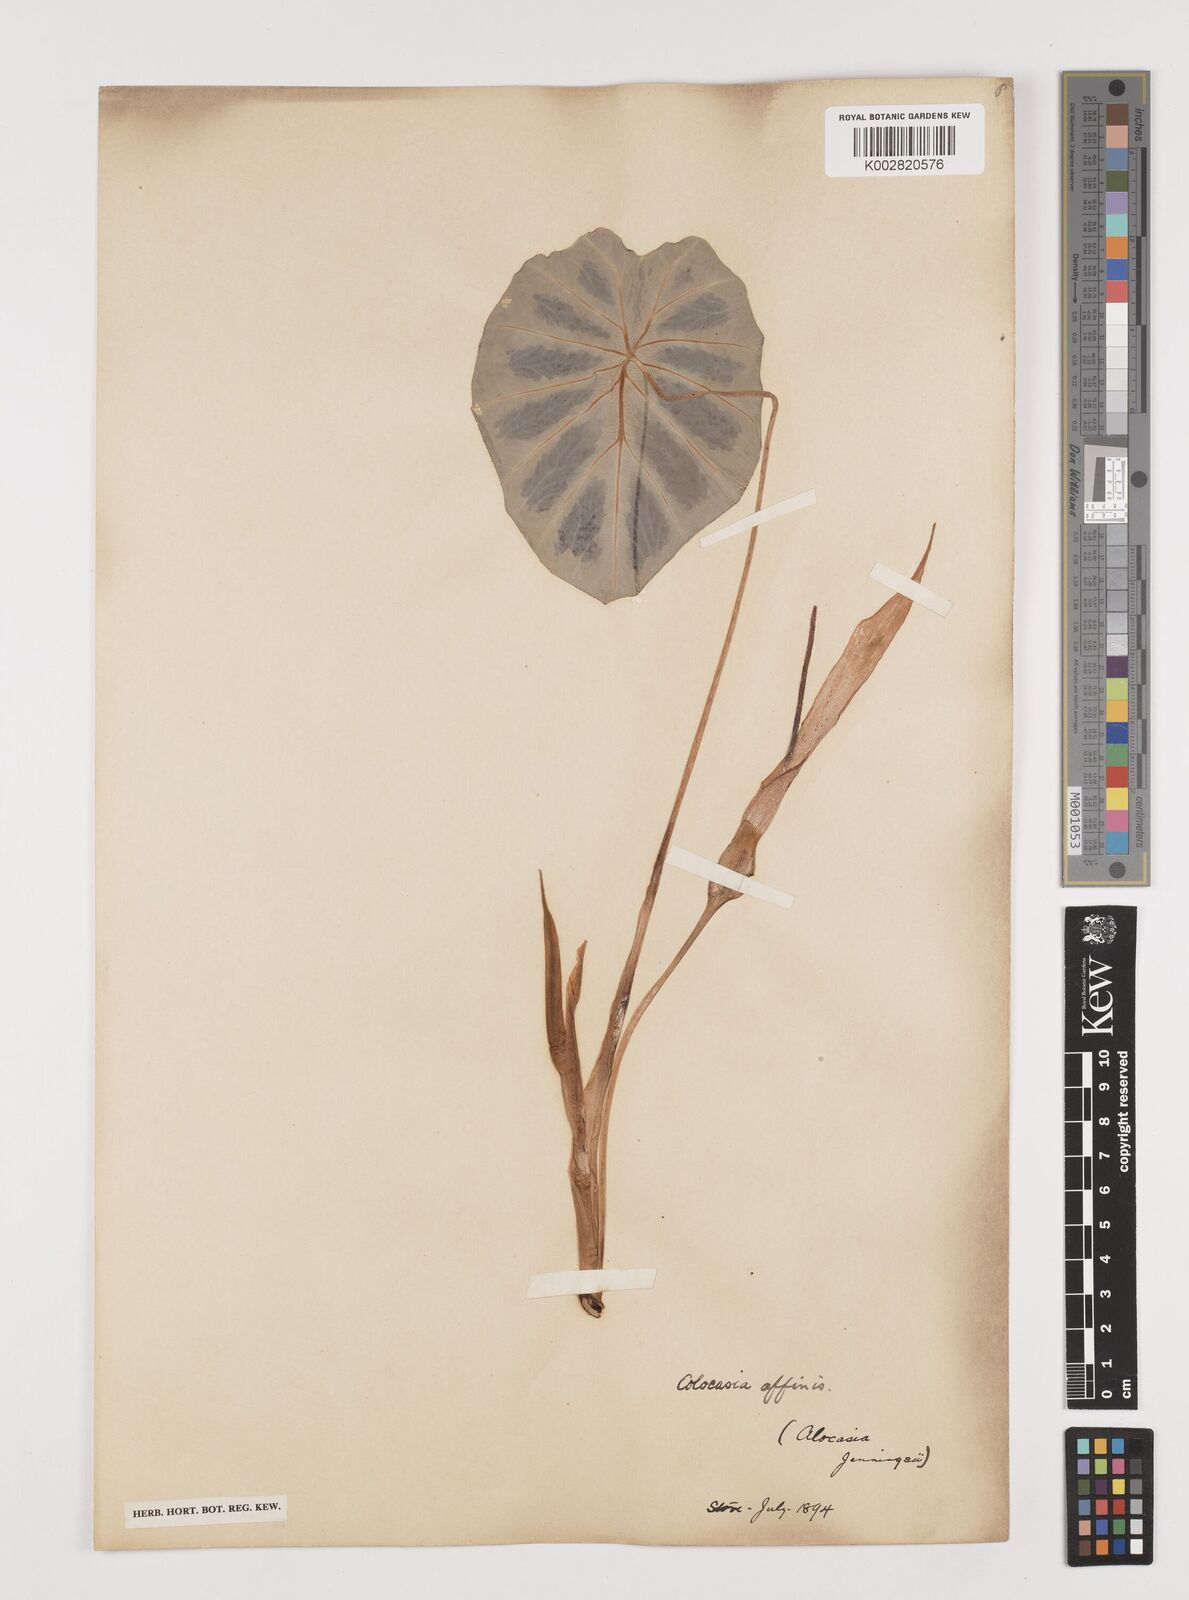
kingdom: Plantae
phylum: Tracheophyta
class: Liliopsida
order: Alismatales
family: Araceae
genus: Colocasia
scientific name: Colocasia affinis
